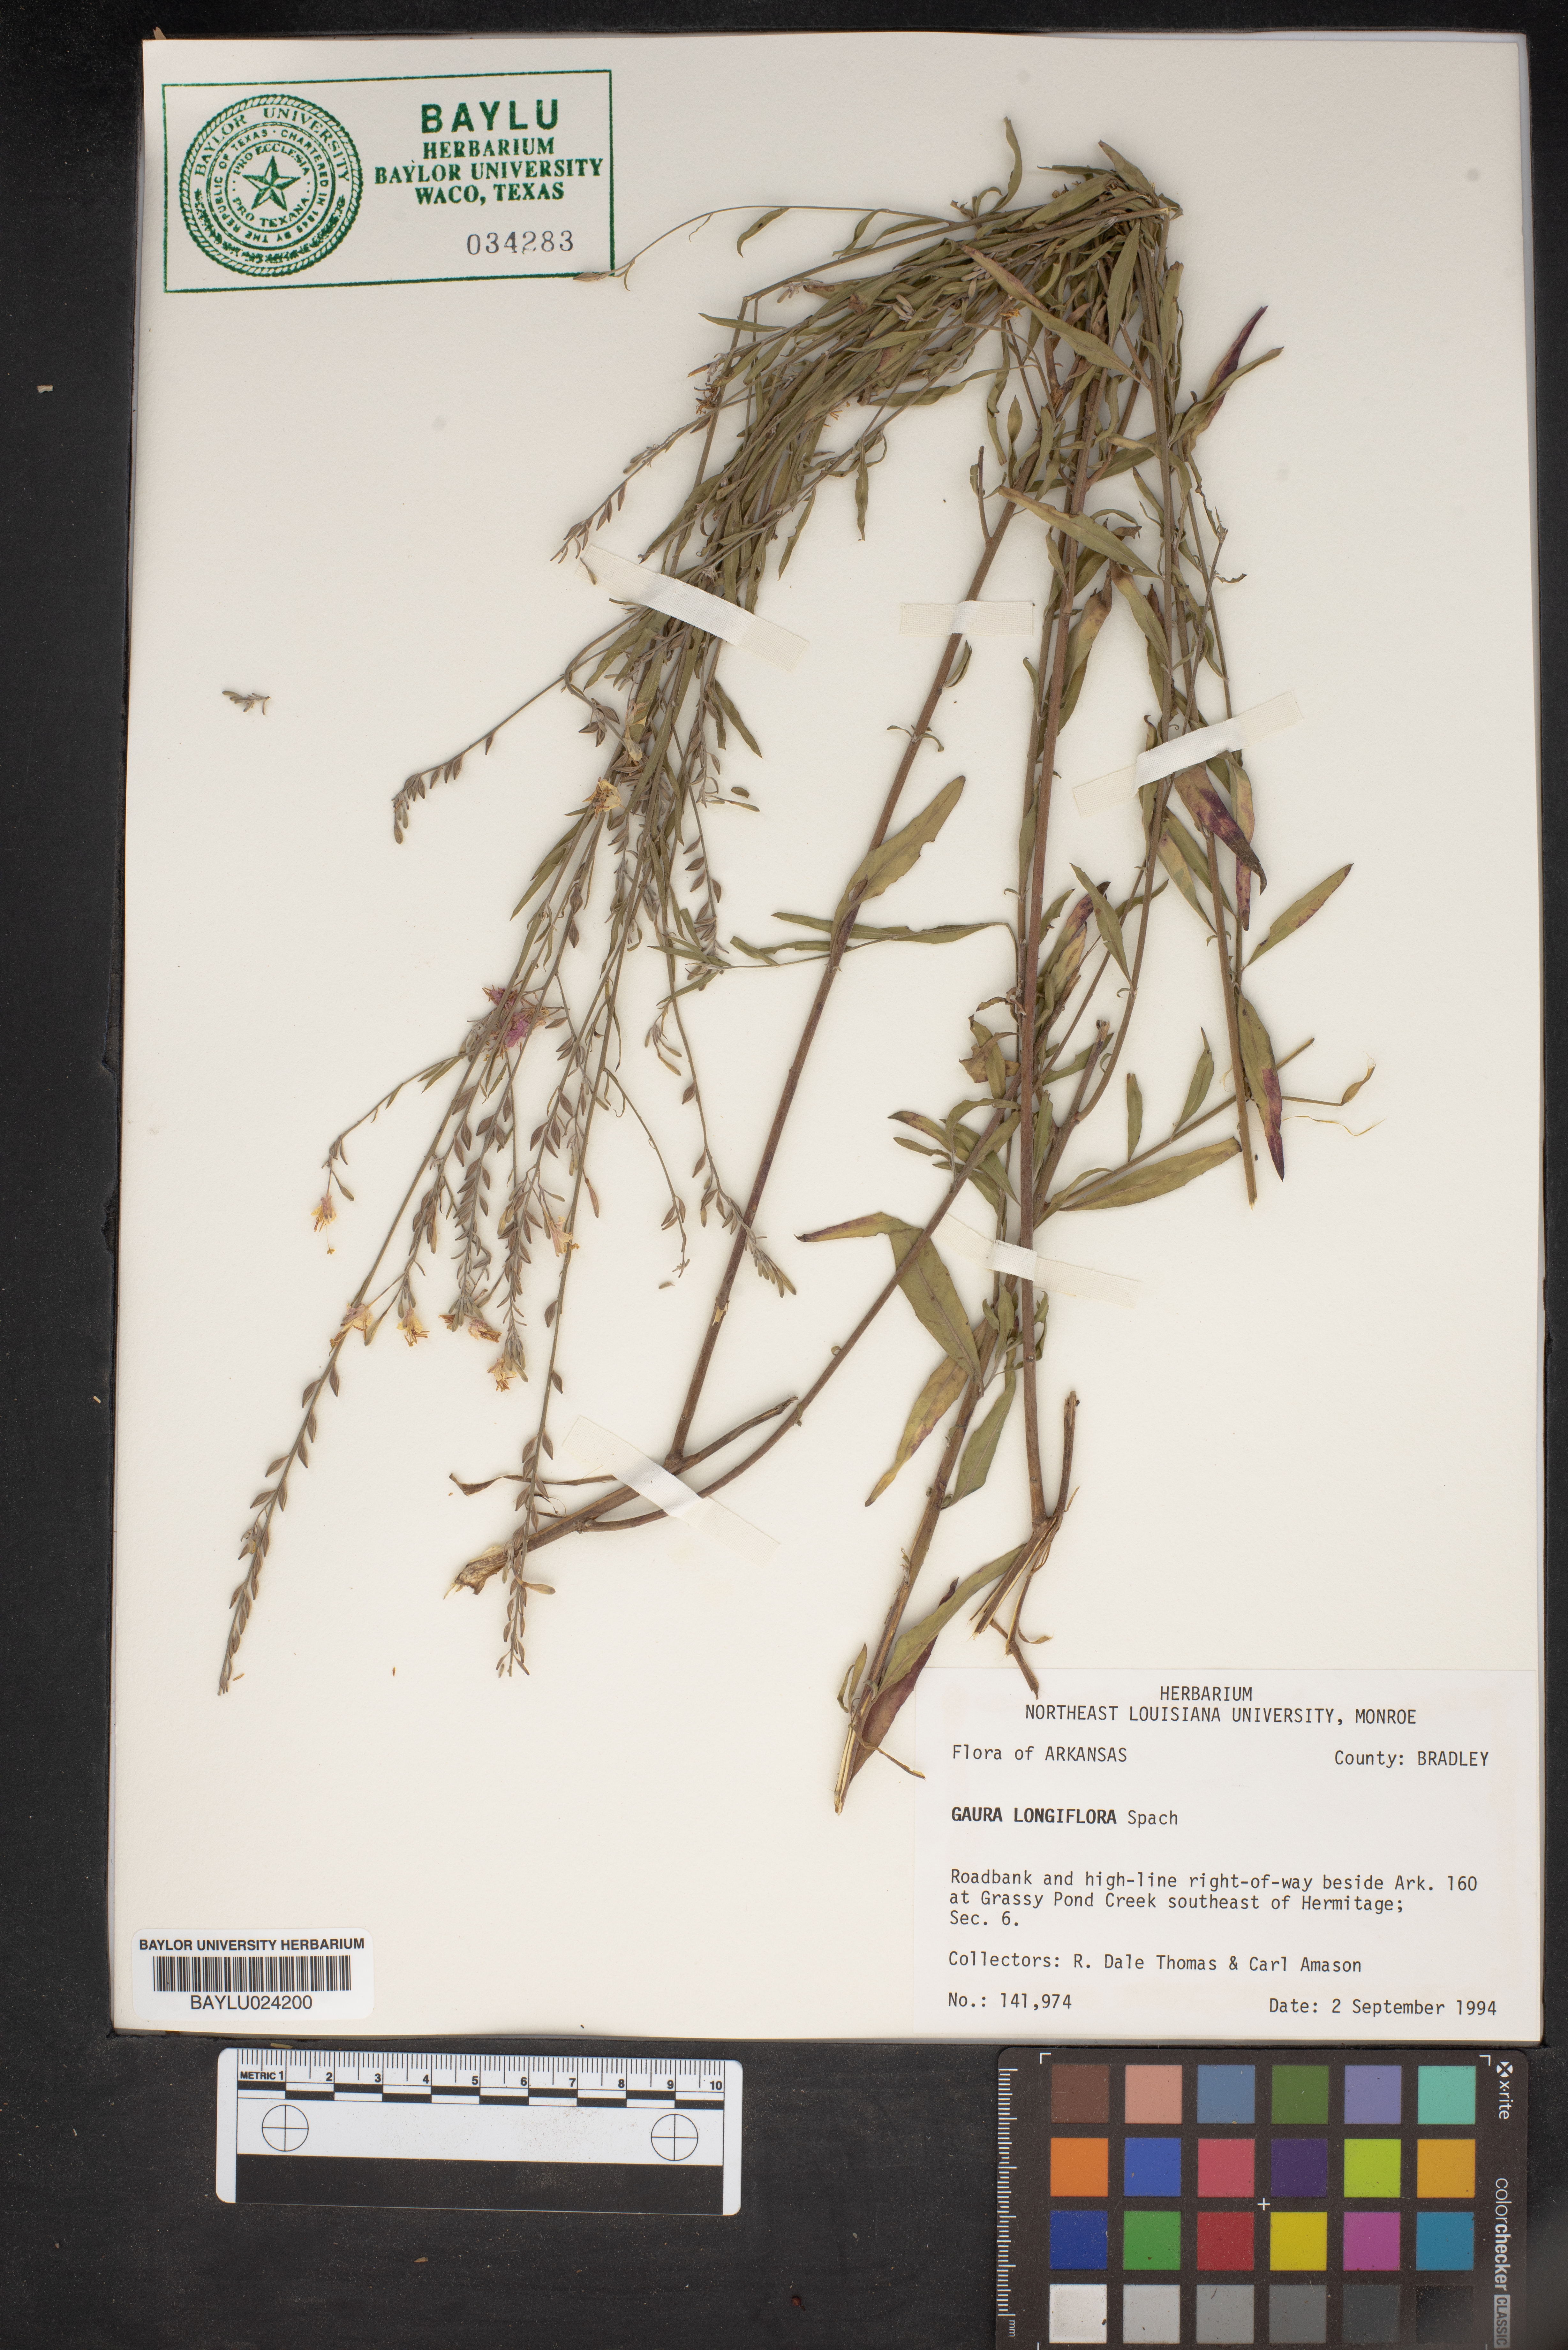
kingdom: Plantae
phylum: Tracheophyta
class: Magnoliopsida
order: Myrtales
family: Onagraceae
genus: Oenothera
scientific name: Oenothera filiformis
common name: Longflower beeblossom
